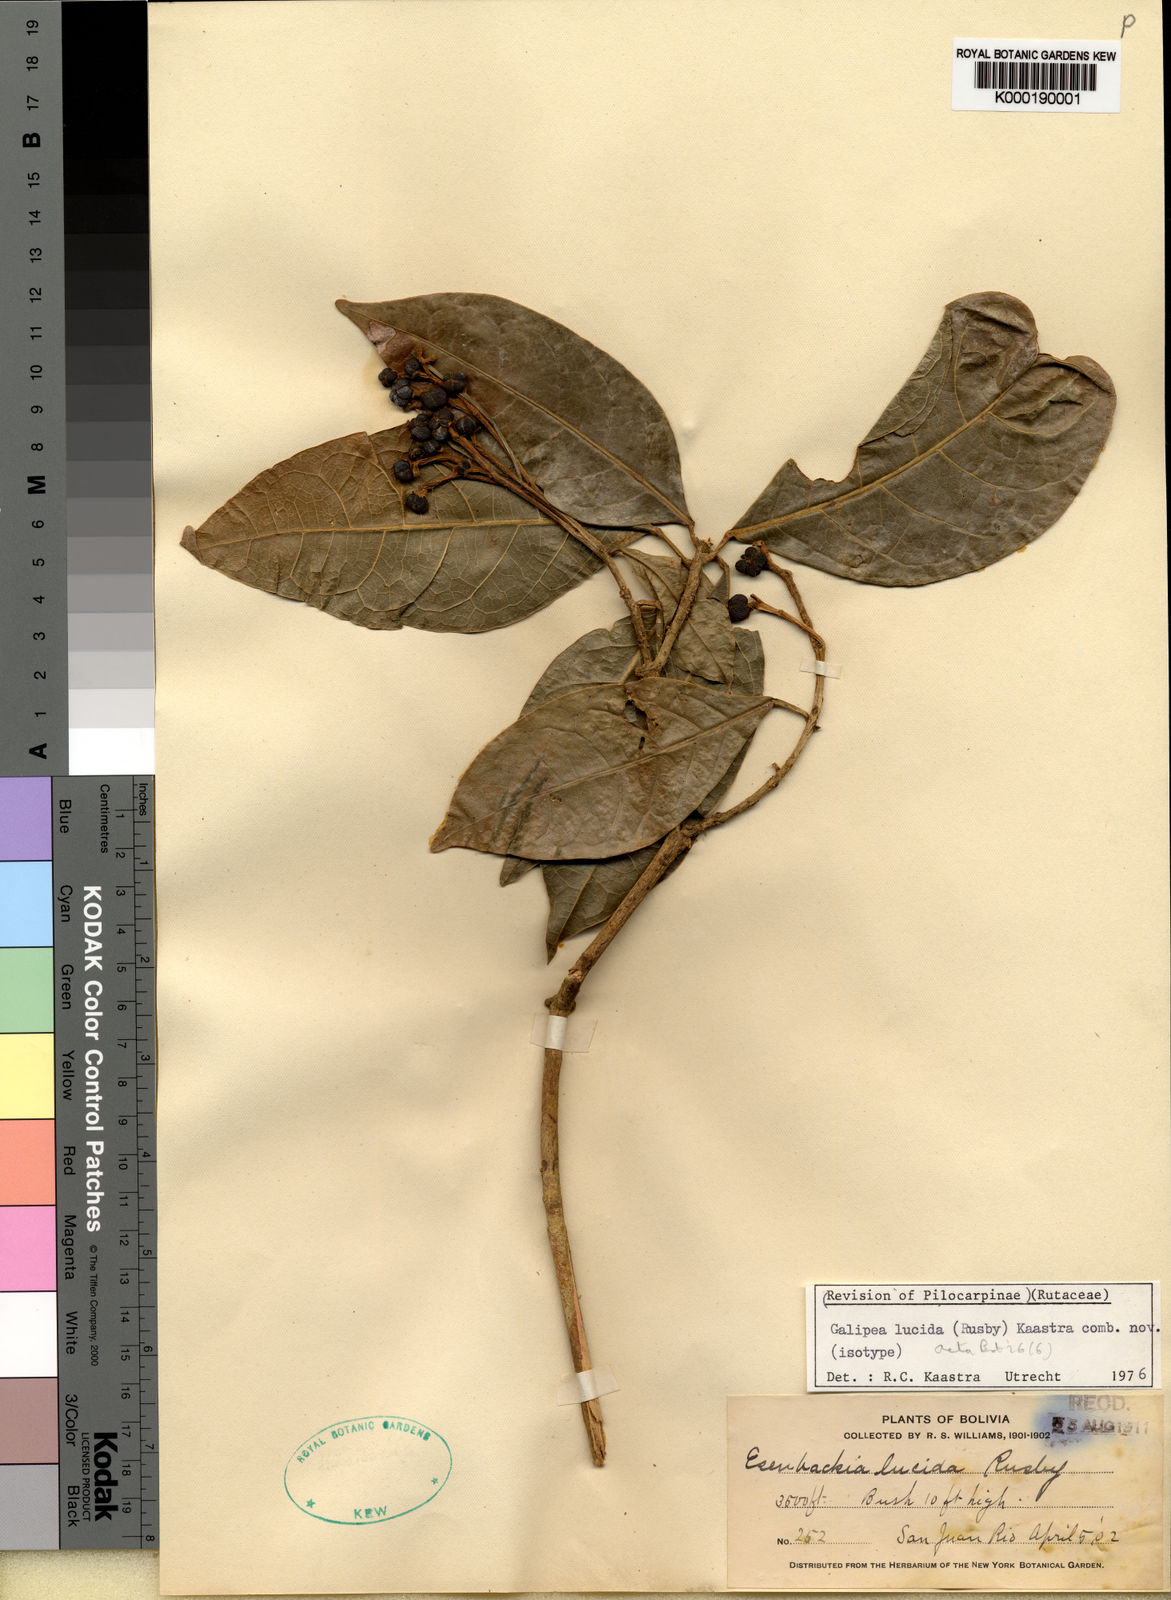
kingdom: Plantae
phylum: Tracheophyta
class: Magnoliopsida
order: Sapindales
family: Rutaceae
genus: Rauia
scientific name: Rauia resinosa
